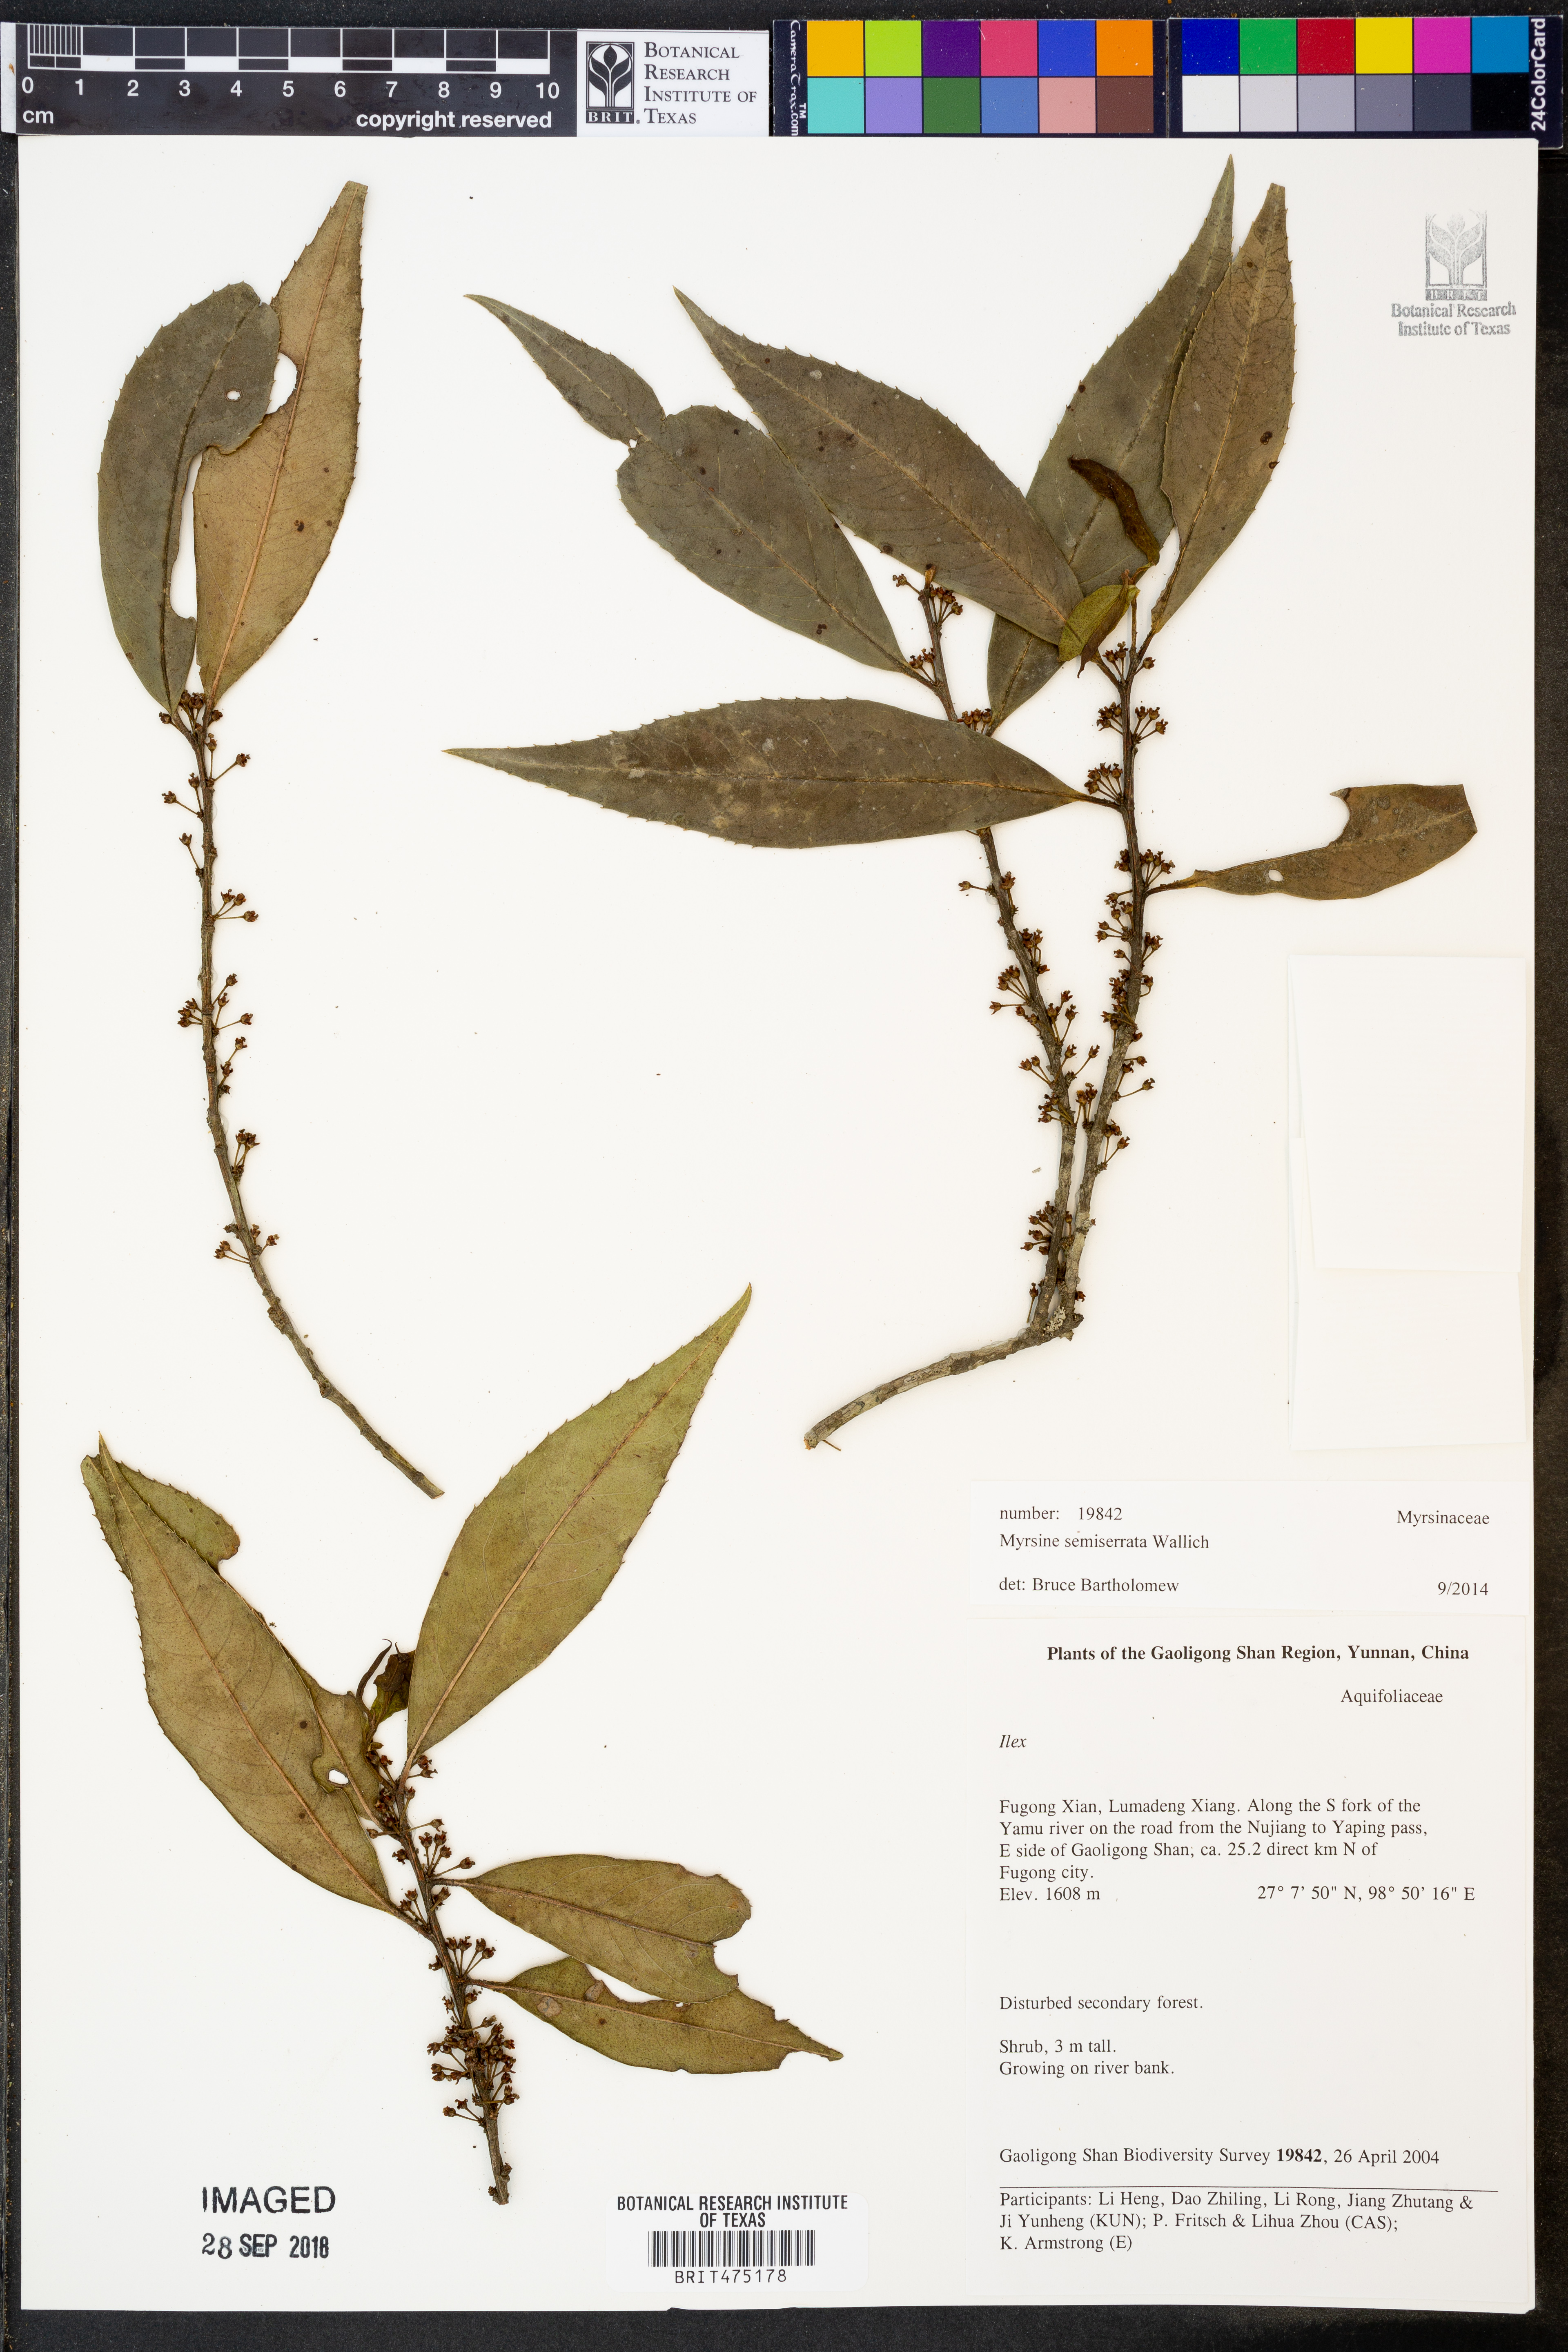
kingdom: Plantae
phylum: Tracheophyta
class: Magnoliopsida
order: Ericales
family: Primulaceae
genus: Myrsine
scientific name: Myrsine semiserrata
